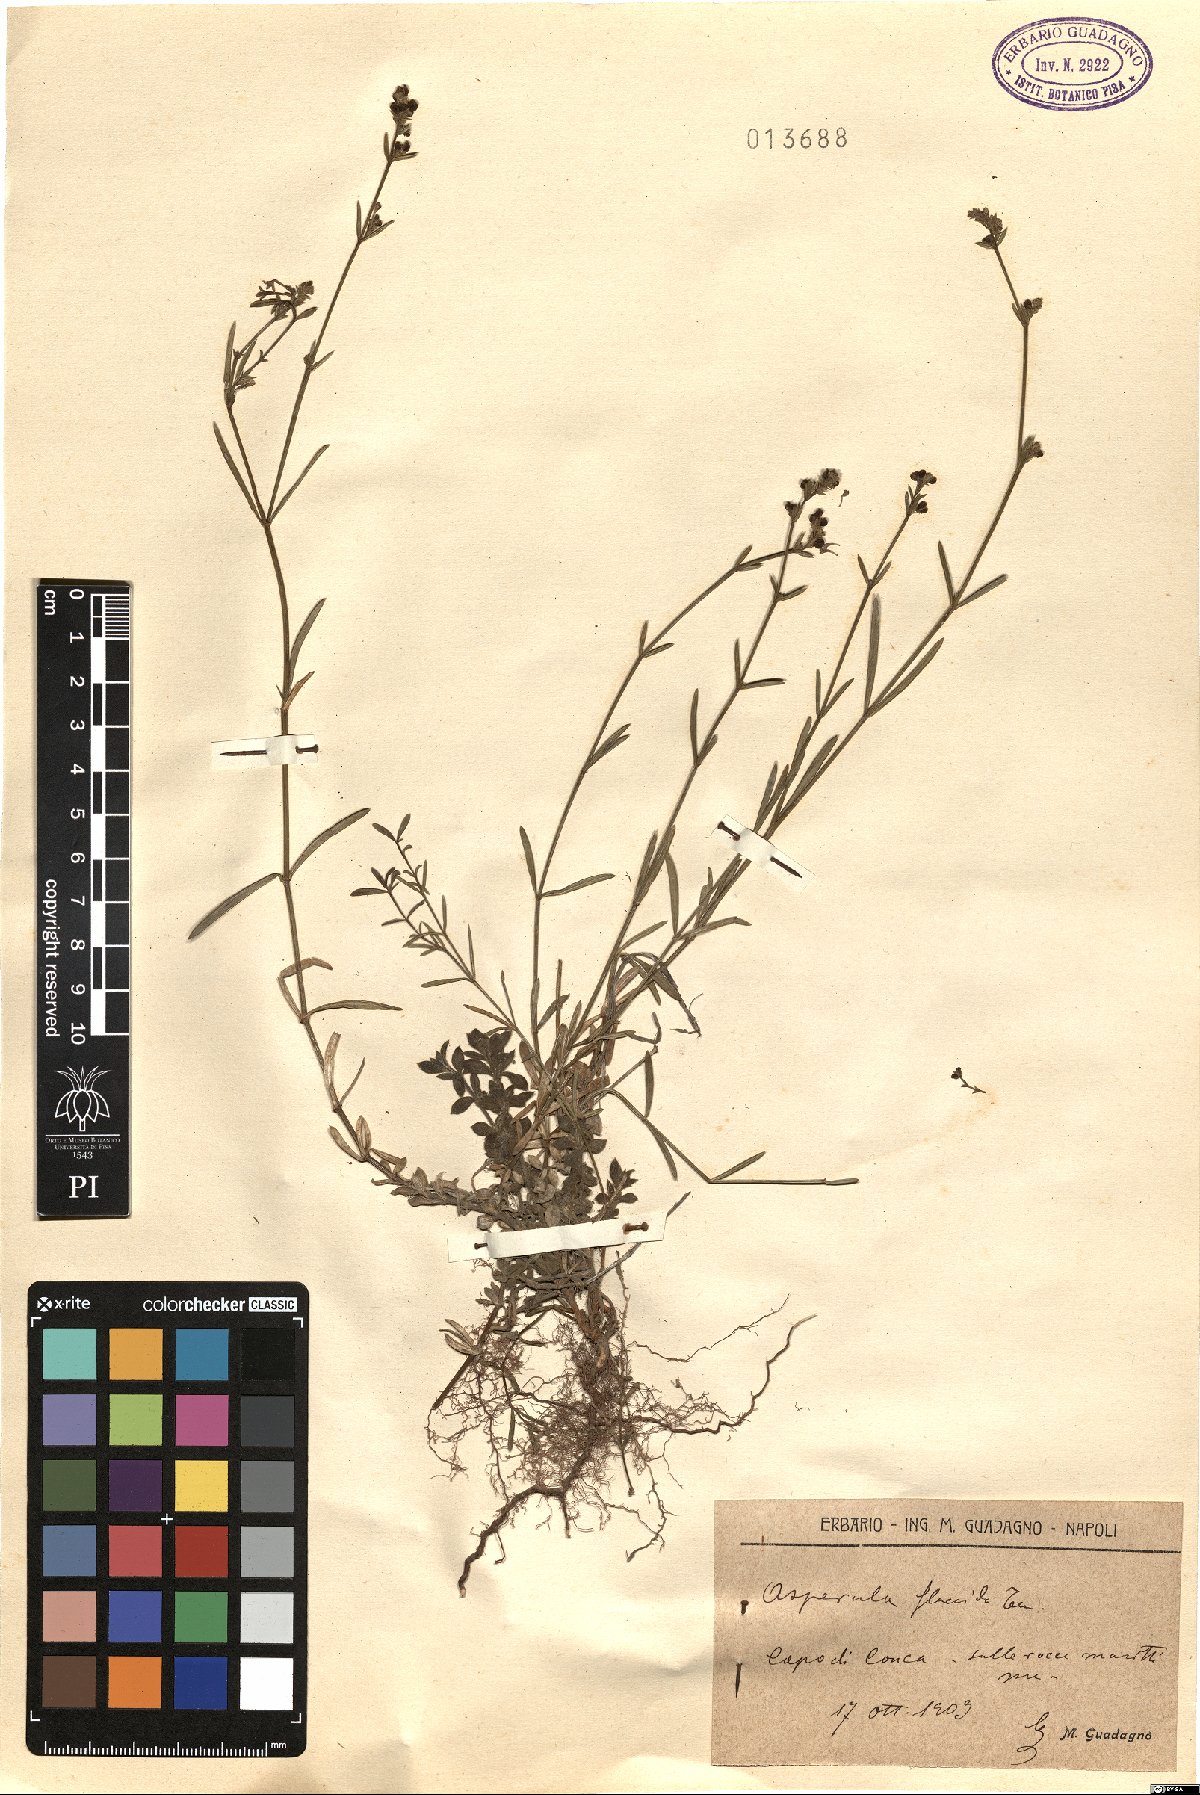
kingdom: Plantae
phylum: Tracheophyta
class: Magnoliopsida
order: Gentianales
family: Rubiaceae
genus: Cynanchica
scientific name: Cynanchica aristata
